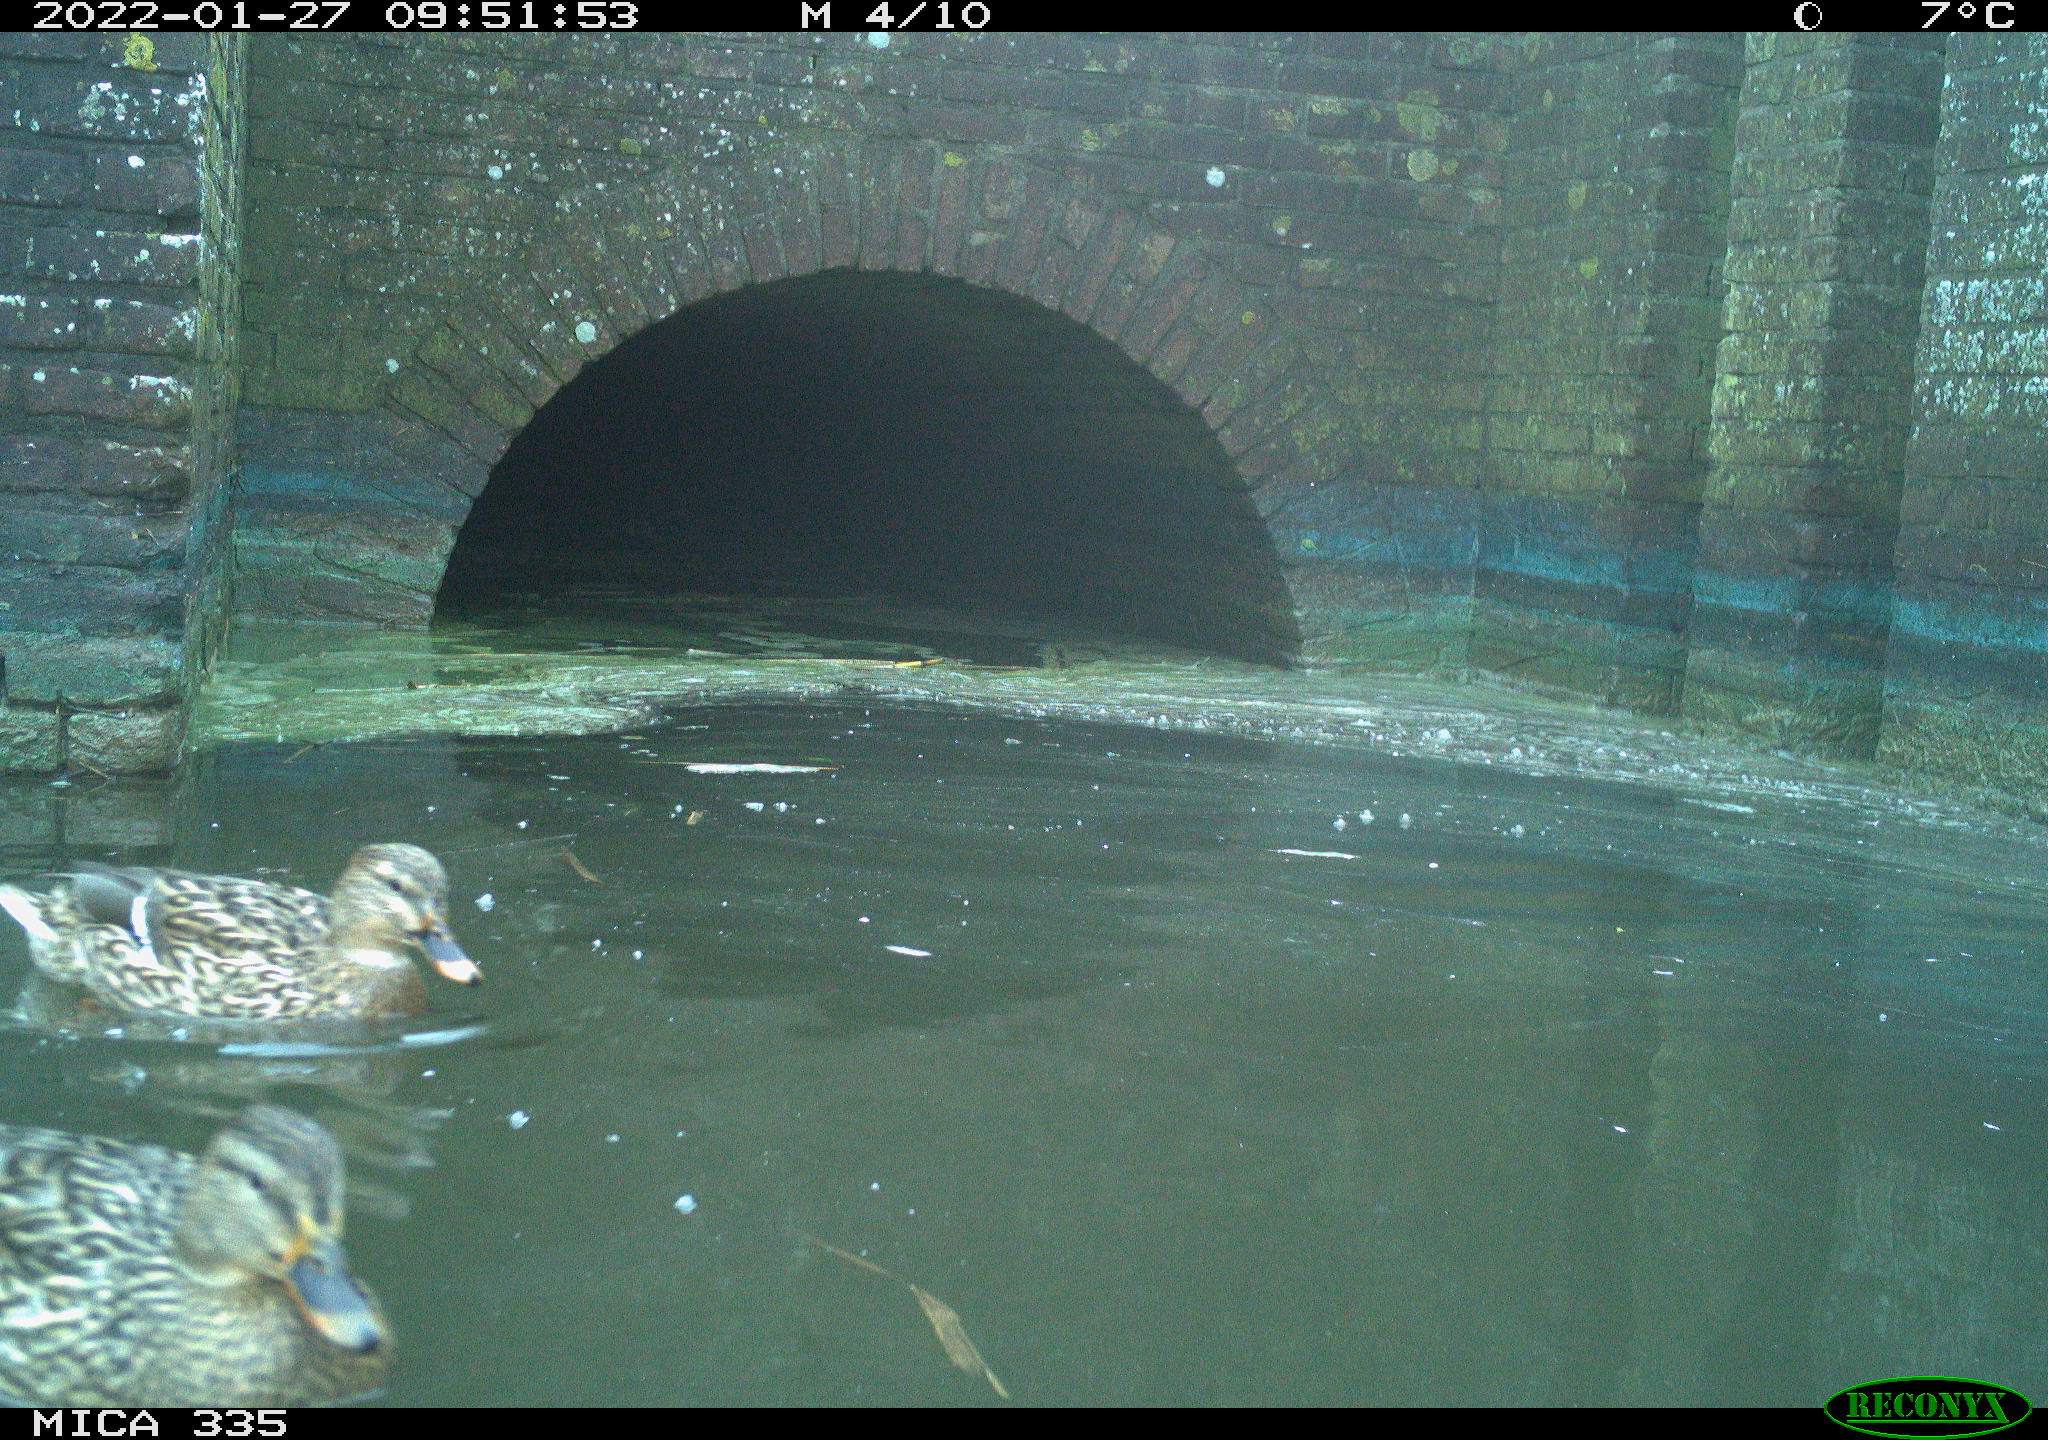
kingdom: Animalia
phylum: Chordata
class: Aves
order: Anseriformes
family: Anatidae
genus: Anas
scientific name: Anas platyrhynchos
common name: Mallard
